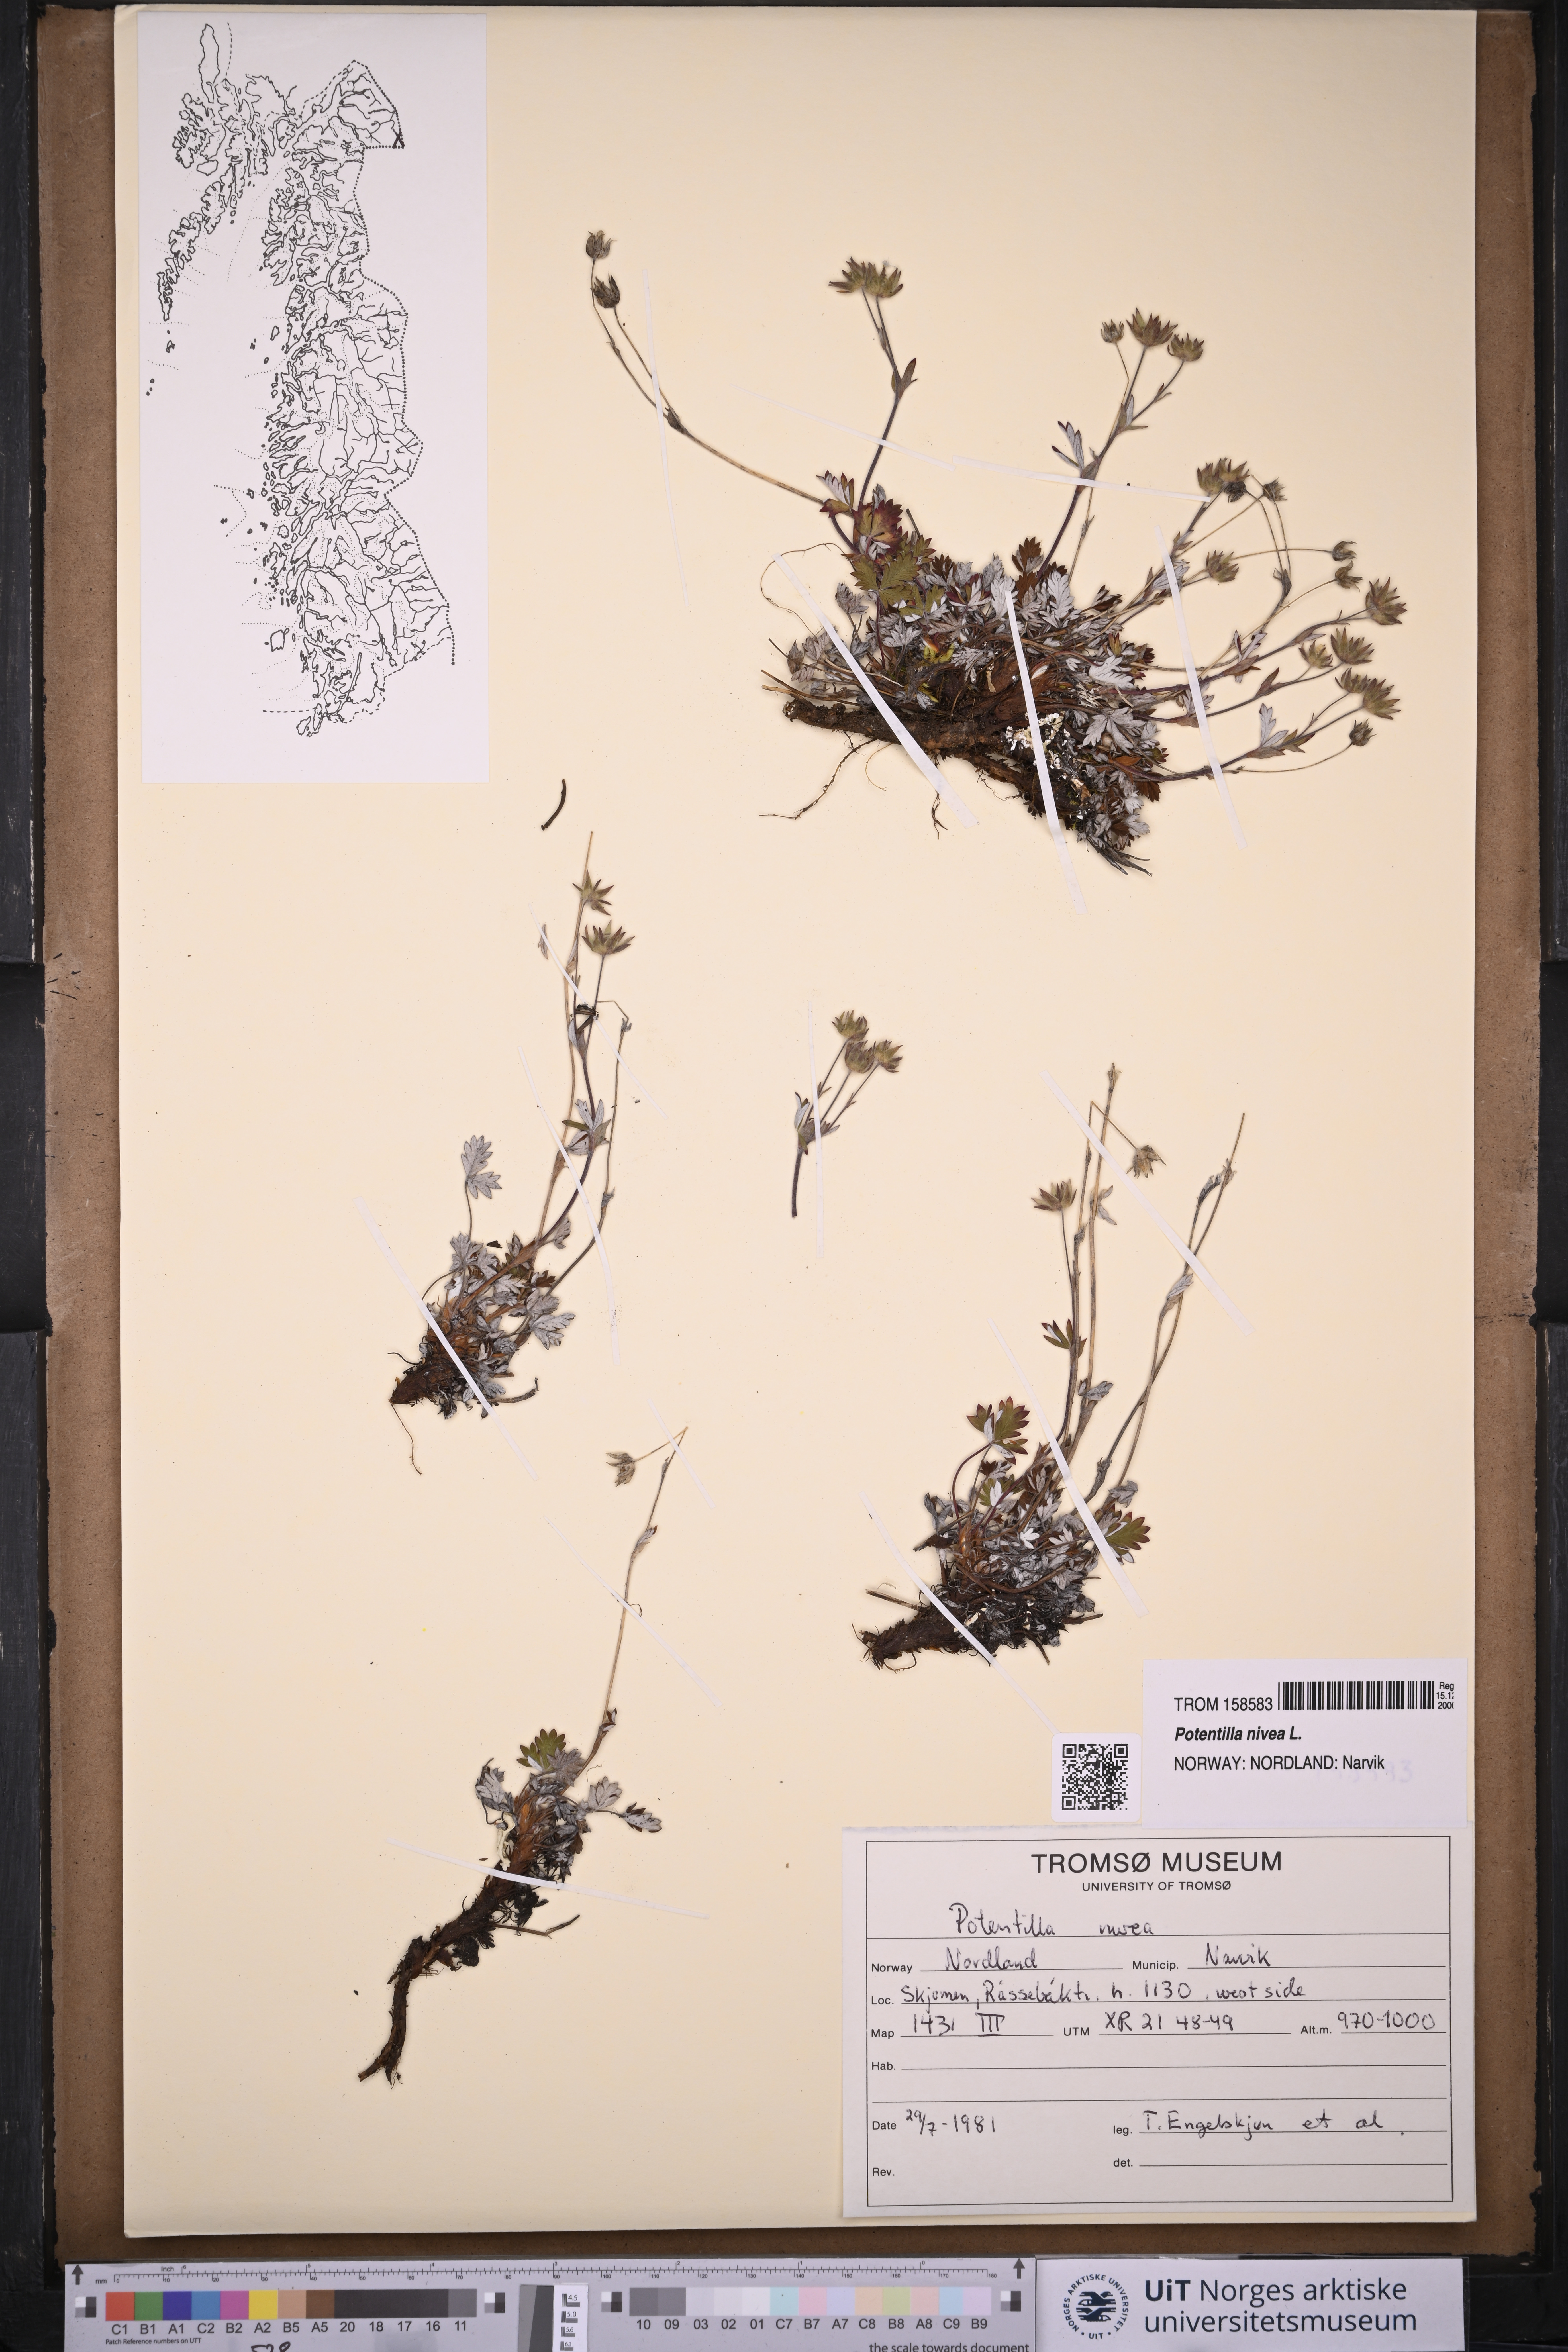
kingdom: Plantae
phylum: Tracheophyta
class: Magnoliopsida
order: Rosales
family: Rosaceae
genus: Potentilla
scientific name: Potentilla arenosa
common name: Bluff cinquefoil
